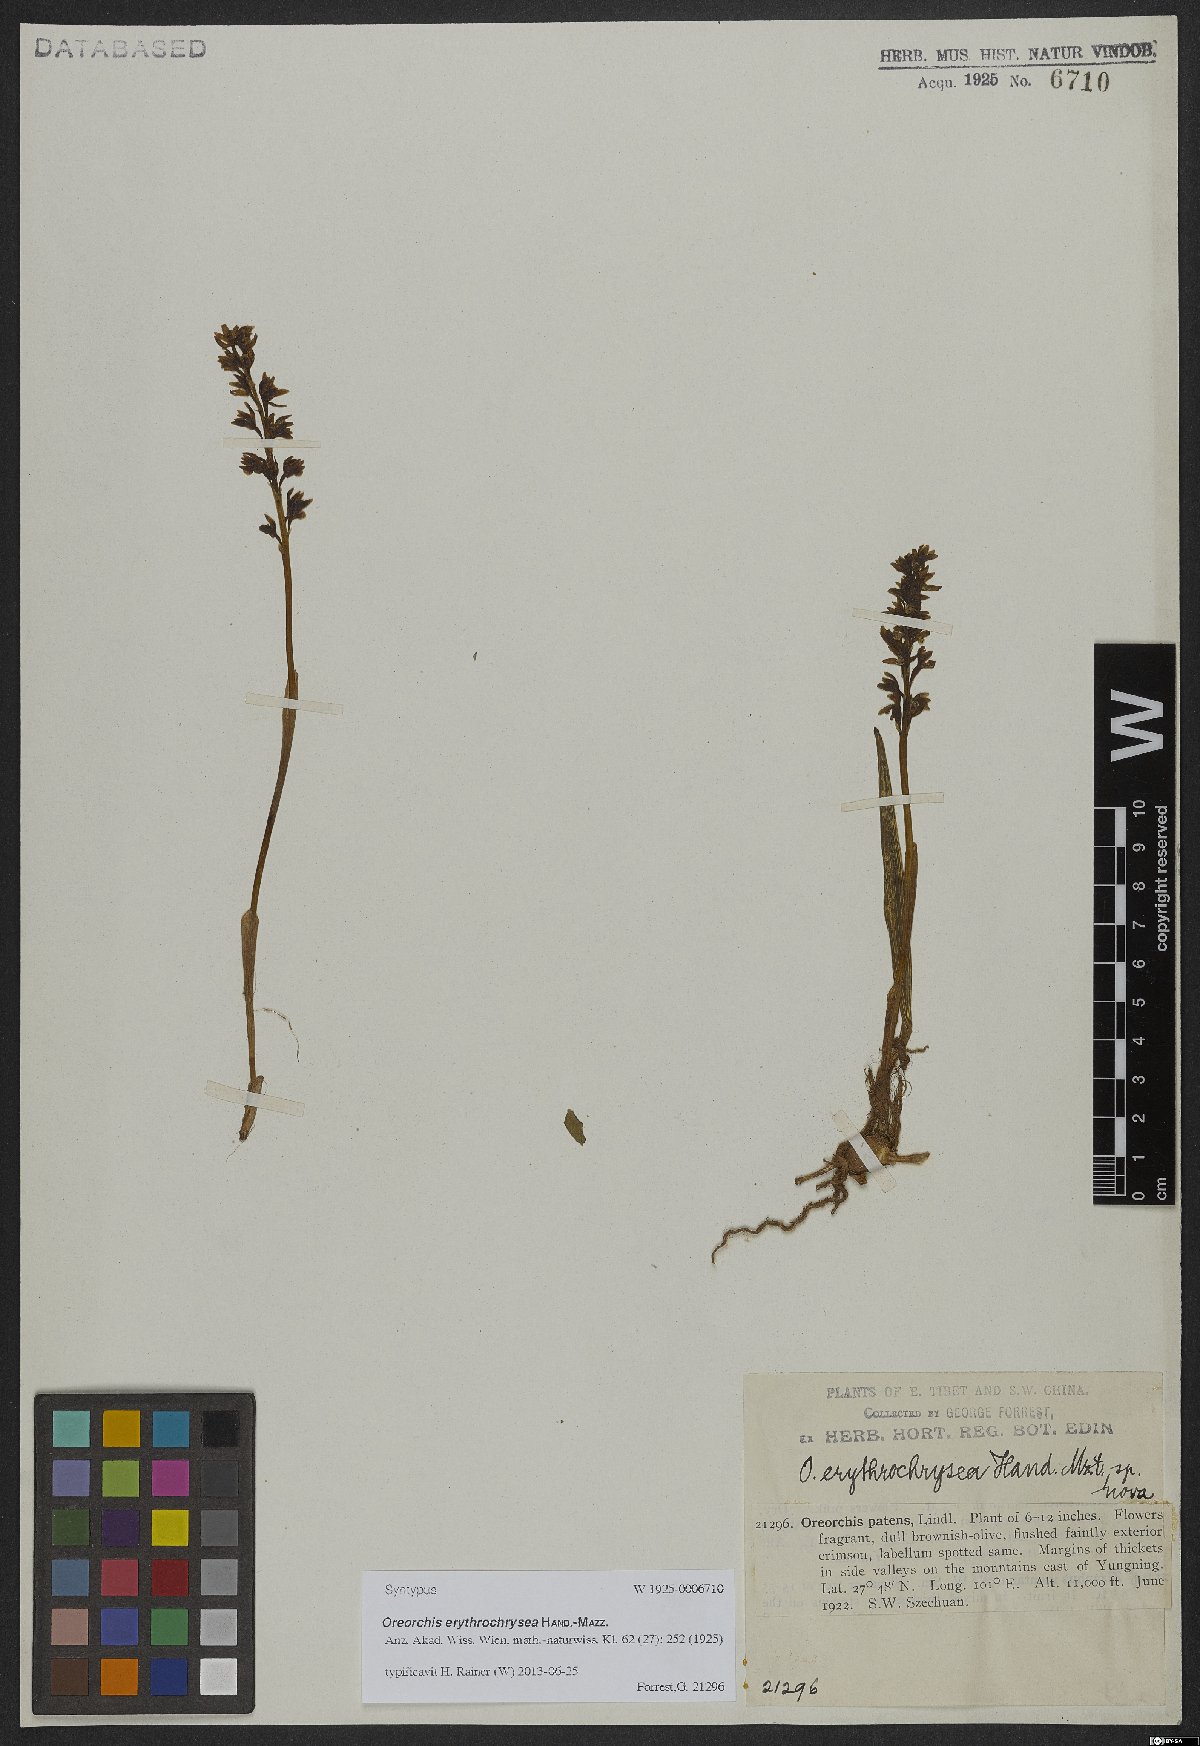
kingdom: Plantae
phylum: Tracheophyta
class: Liliopsida
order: Asparagales
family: Orchidaceae
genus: Oreorchis
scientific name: Oreorchis erythrochrysea
